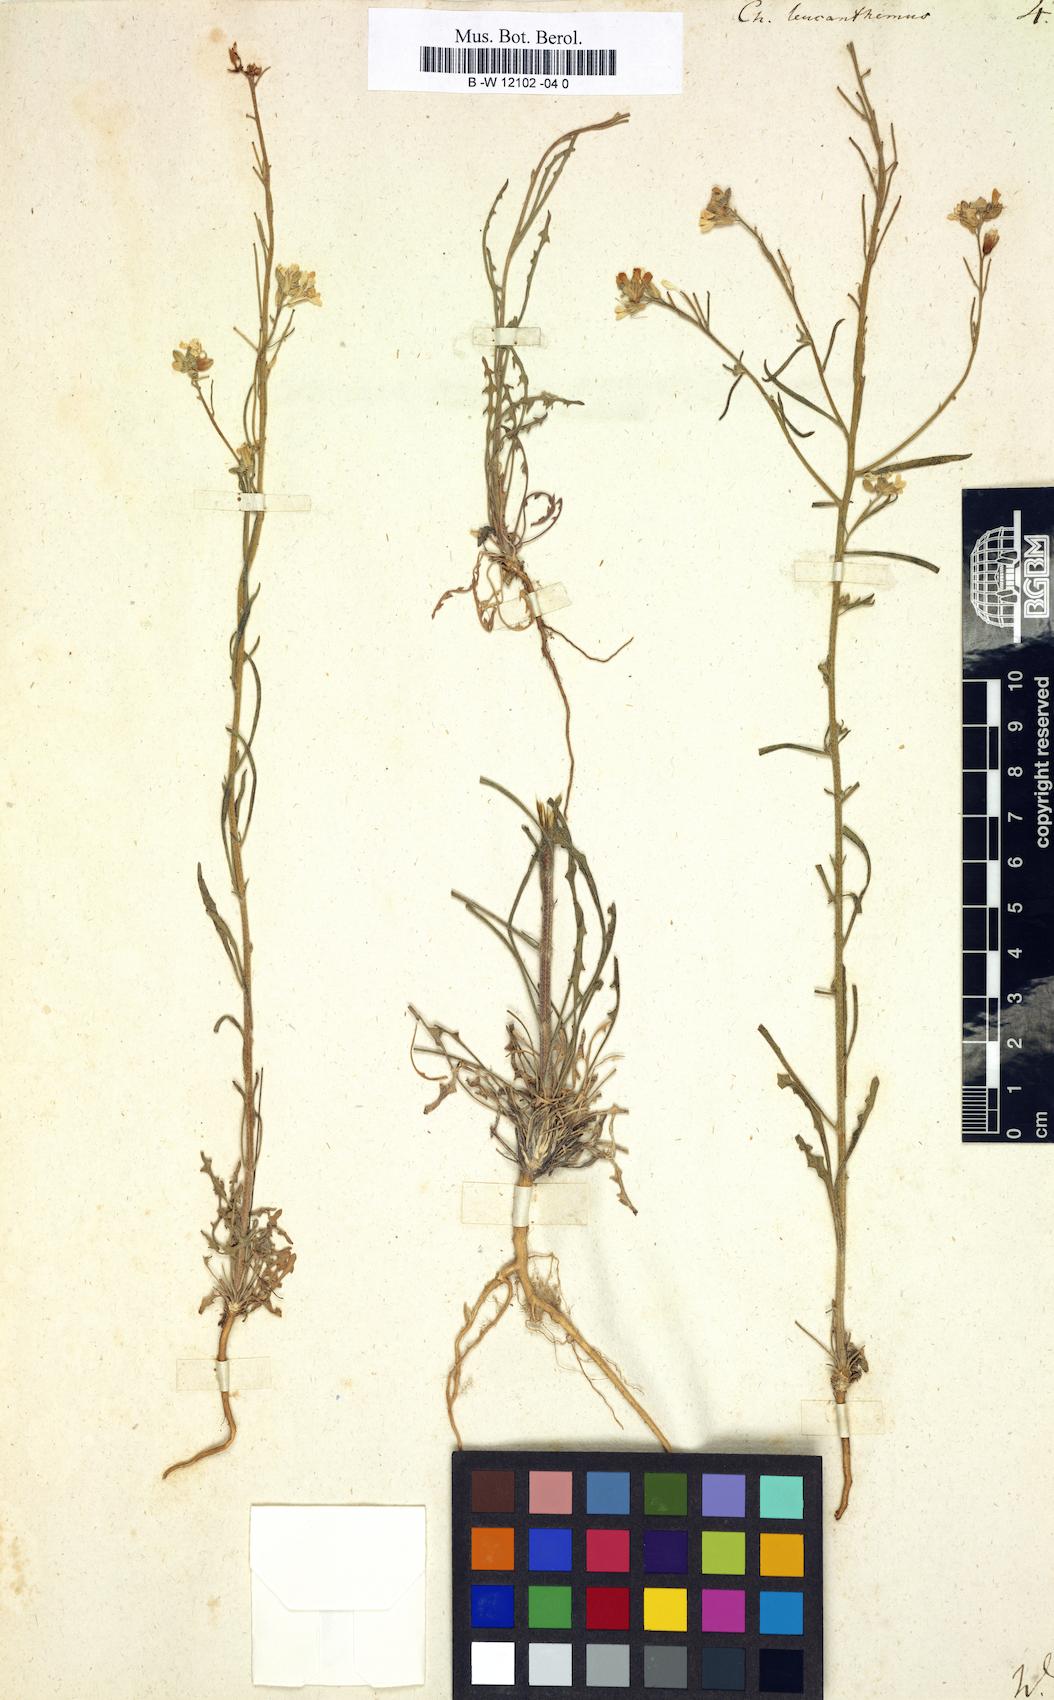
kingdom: Plantae
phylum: Tracheophyta
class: Magnoliopsida
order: Brassicales
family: Brassicaceae
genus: Erysimum
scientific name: Erysimum leucanthemum
